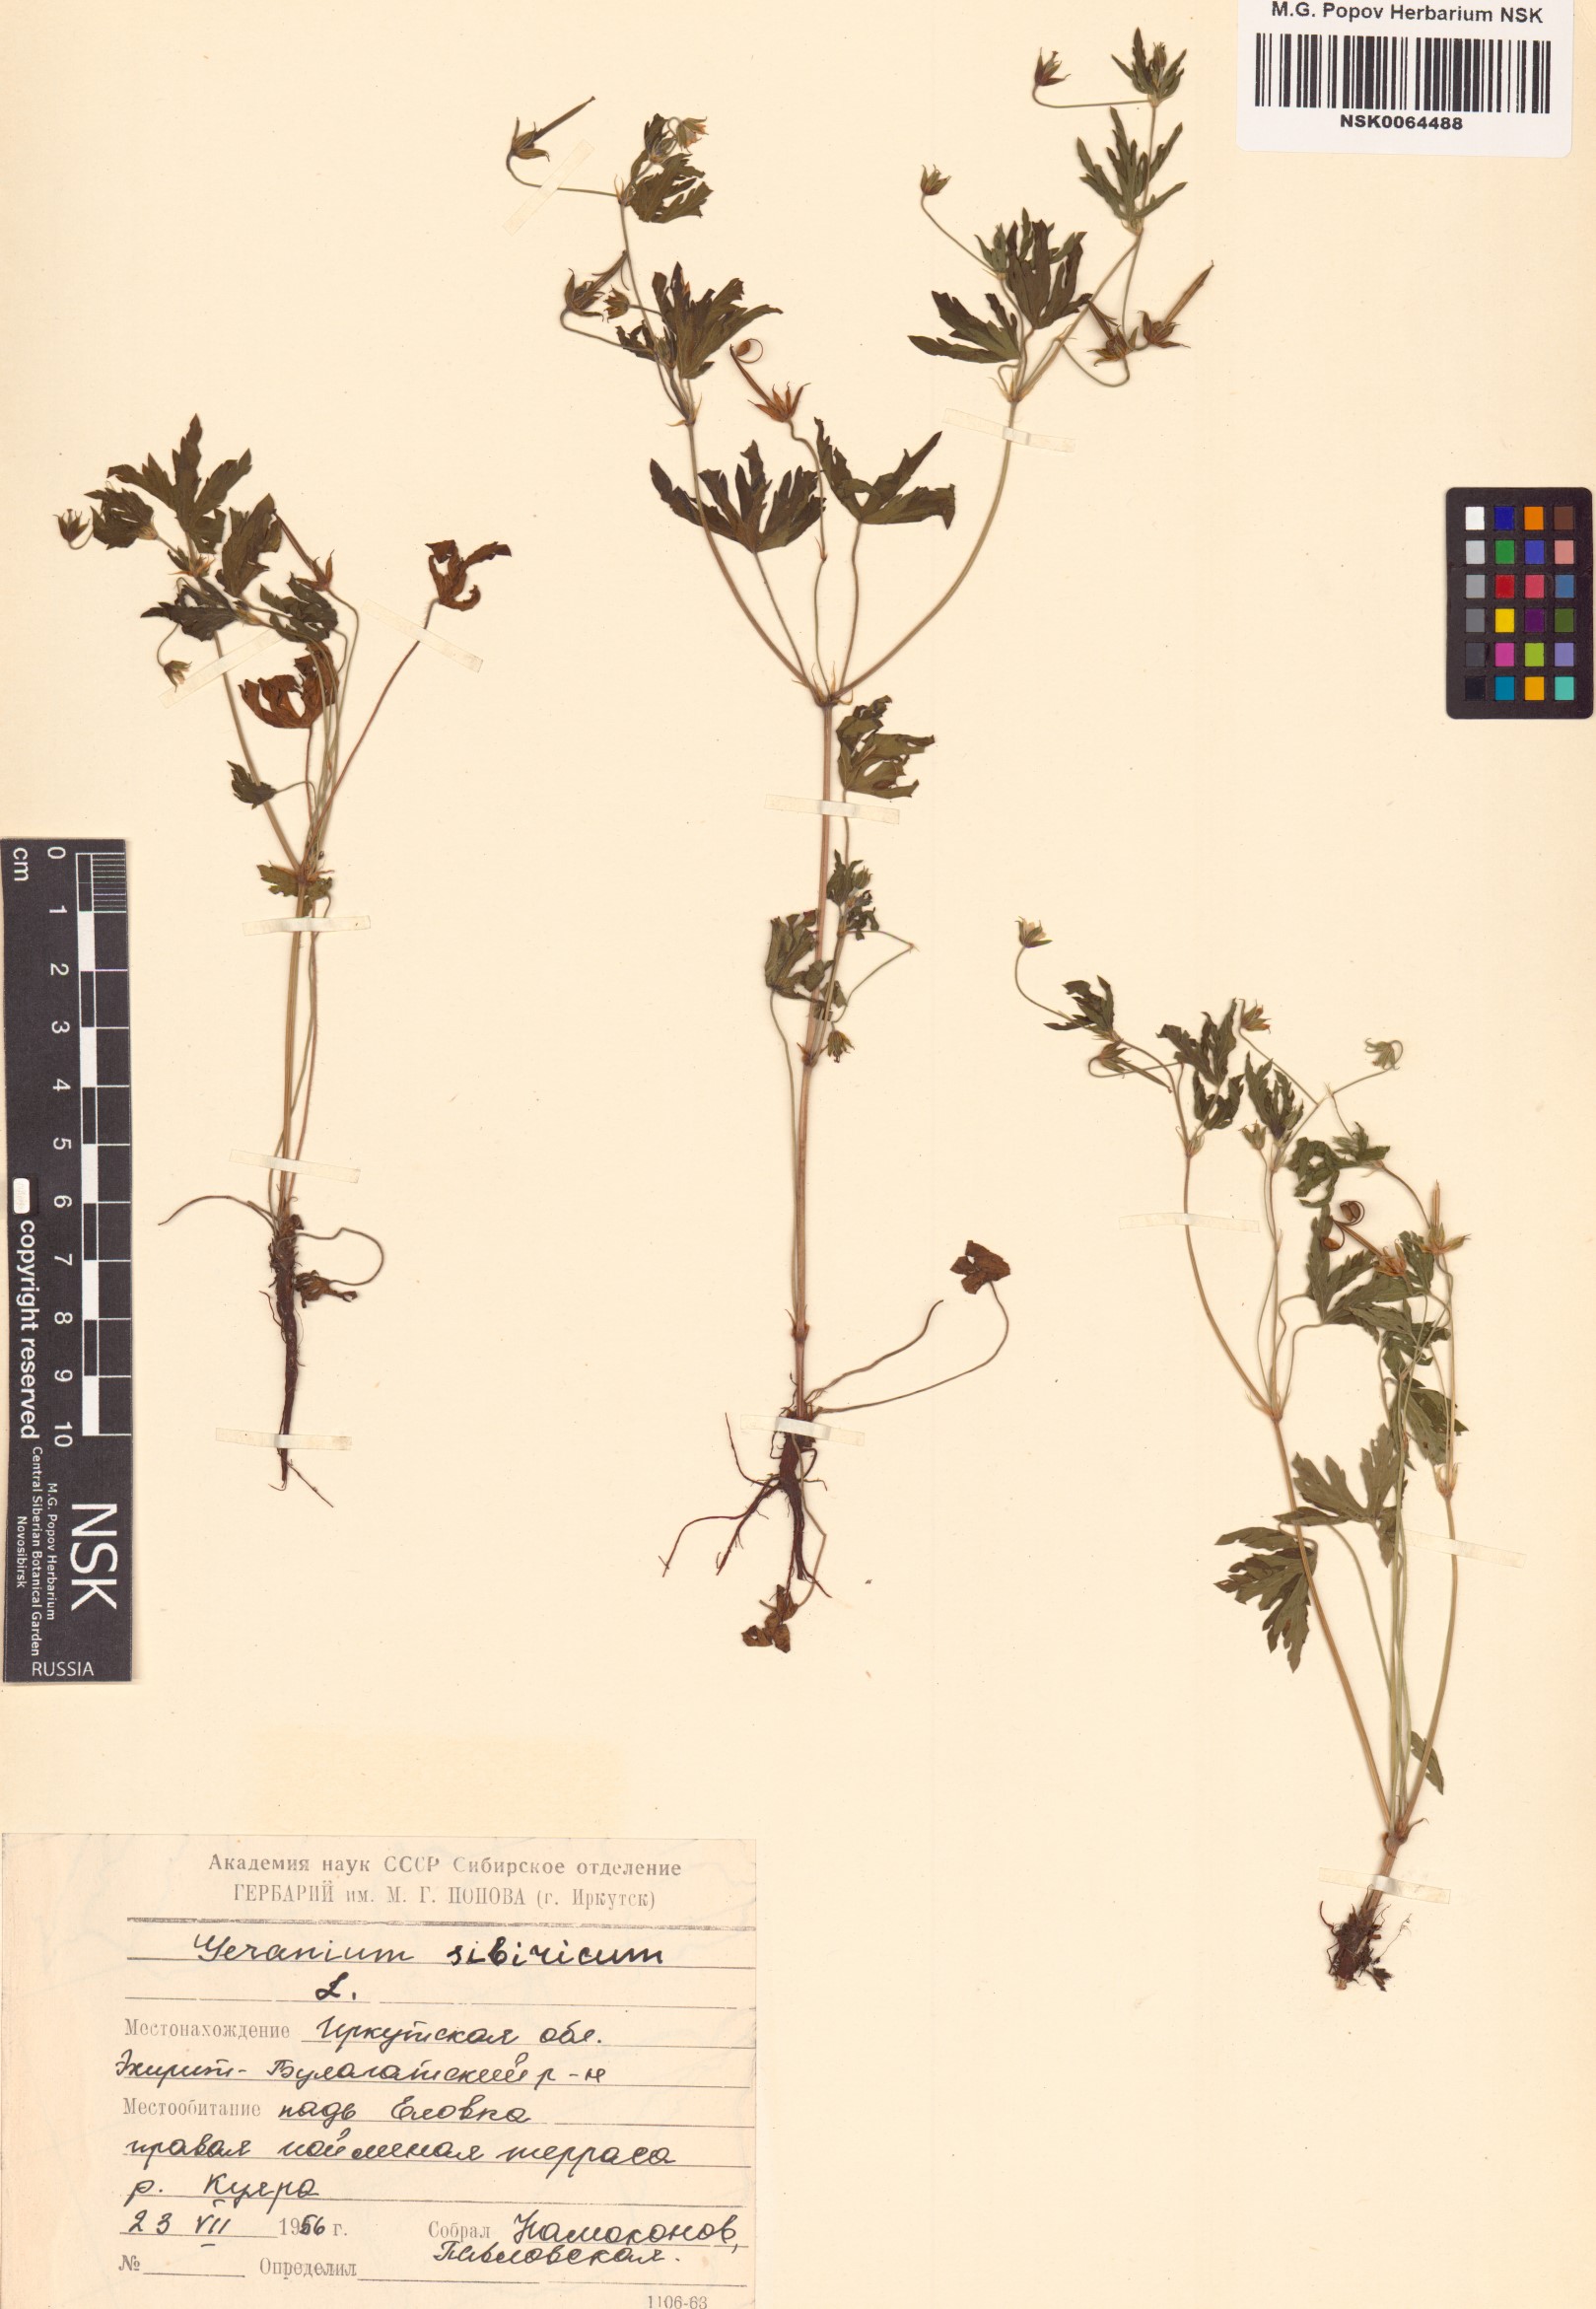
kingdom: Plantae
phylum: Tracheophyta
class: Magnoliopsida
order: Geraniales
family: Geraniaceae
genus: Geranium
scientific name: Geranium sibiricum
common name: Siberian crane's-bill
